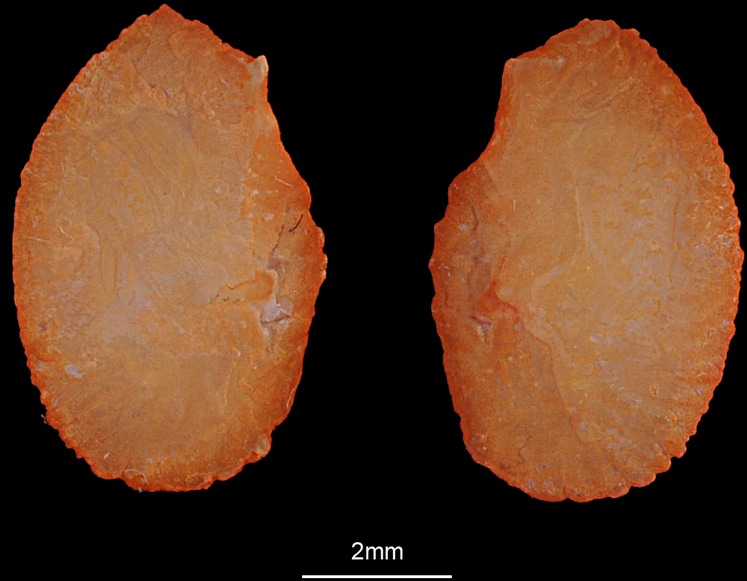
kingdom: Animalia
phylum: Chordata
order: Elopiformes
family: Elopidae
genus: Elops
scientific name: Elops lacerta
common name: Atlantic ladyfish
